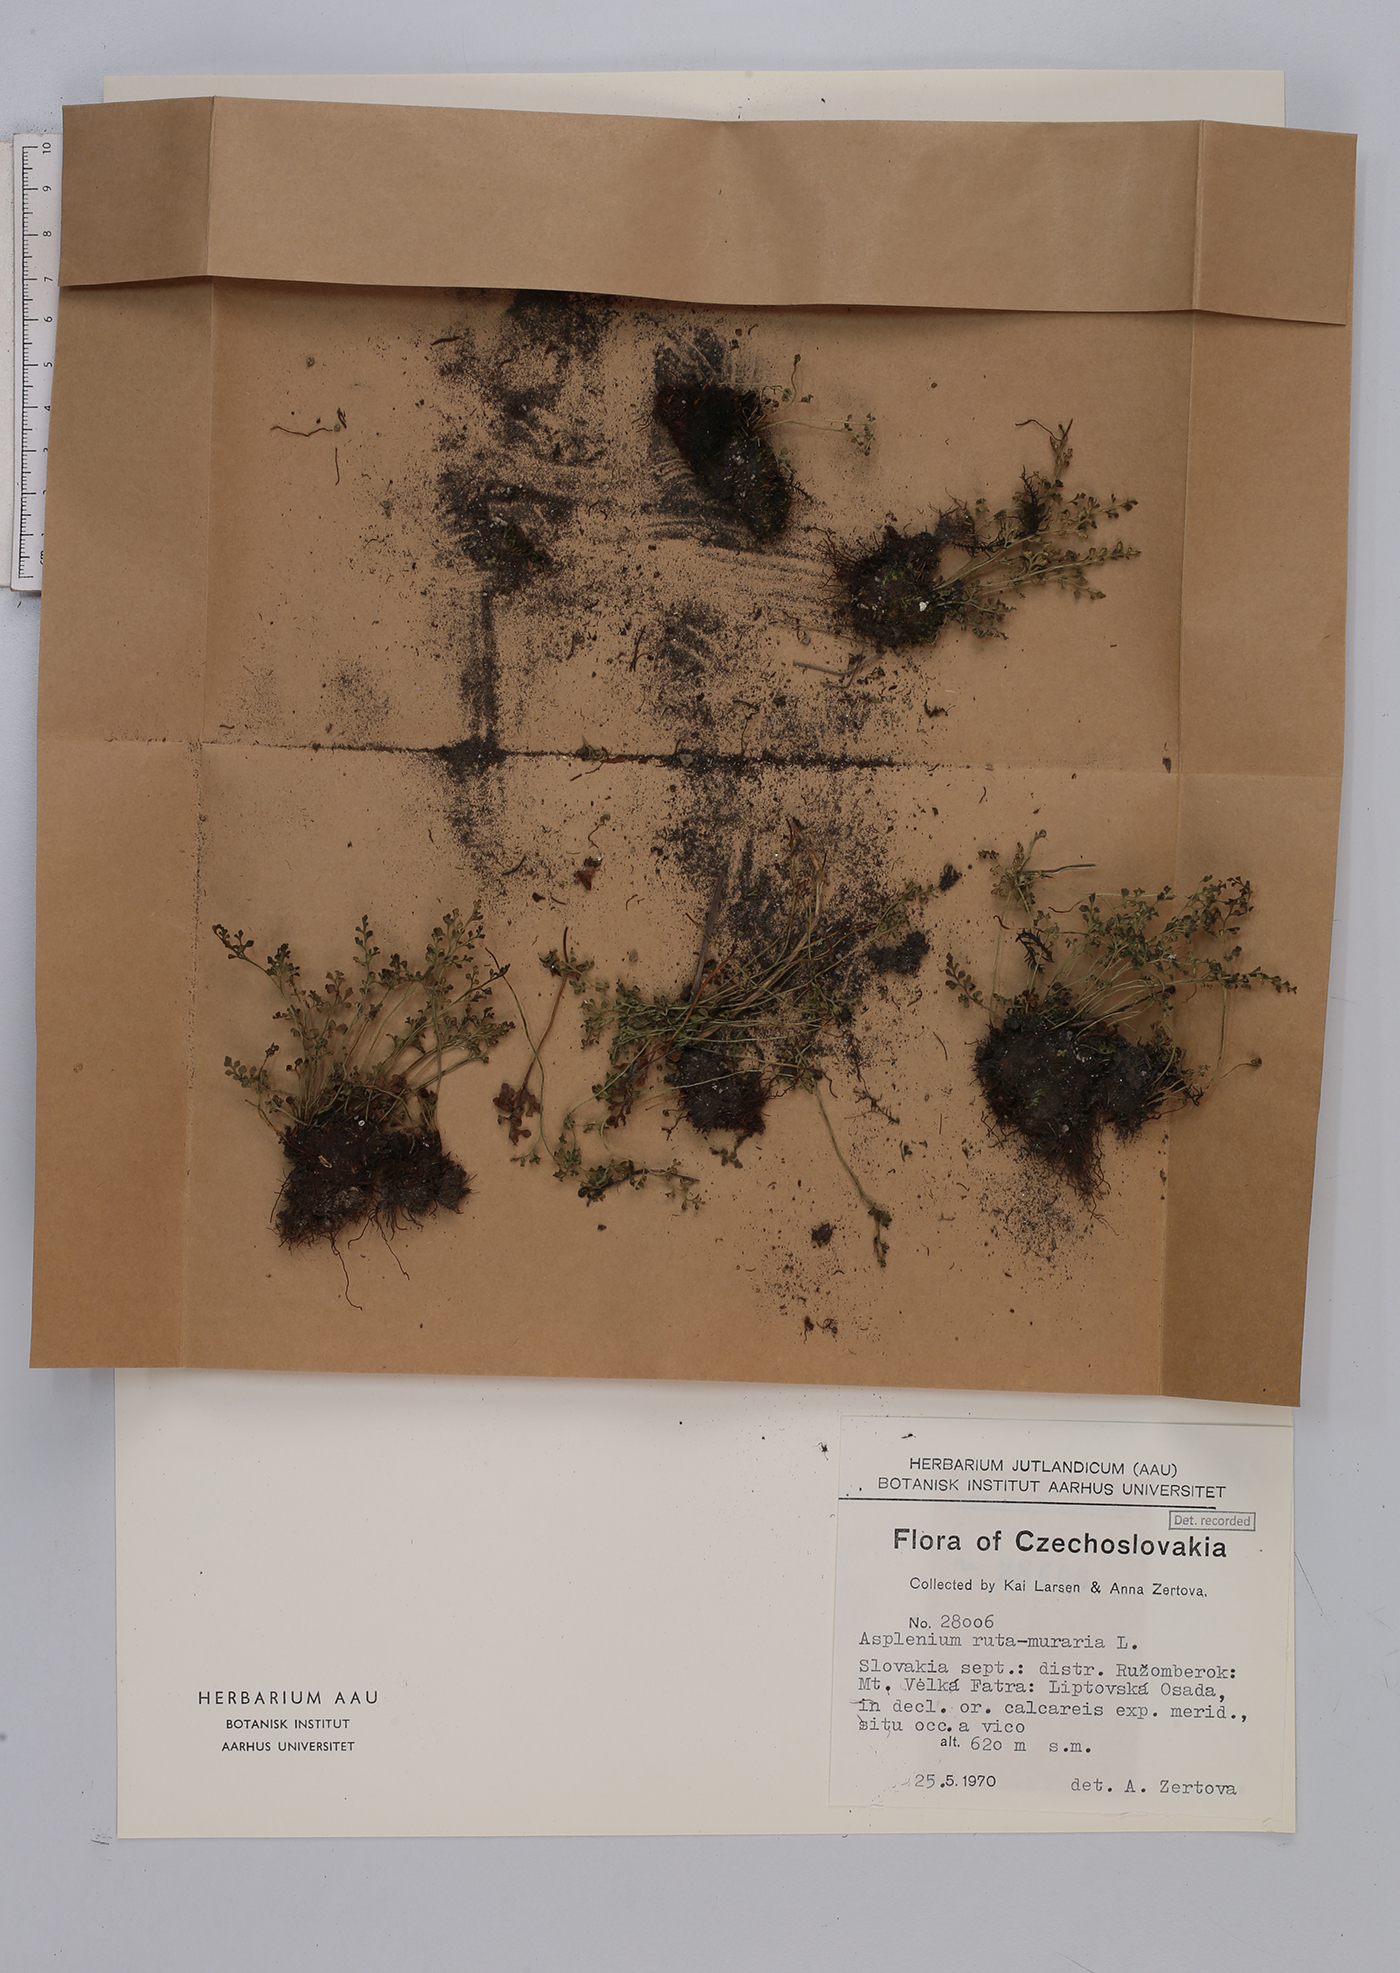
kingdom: Plantae
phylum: Tracheophyta
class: Polypodiopsida
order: Polypodiales
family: Aspleniaceae
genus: Asplenium
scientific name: Asplenium ruta-muraria
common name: Wall-rue
